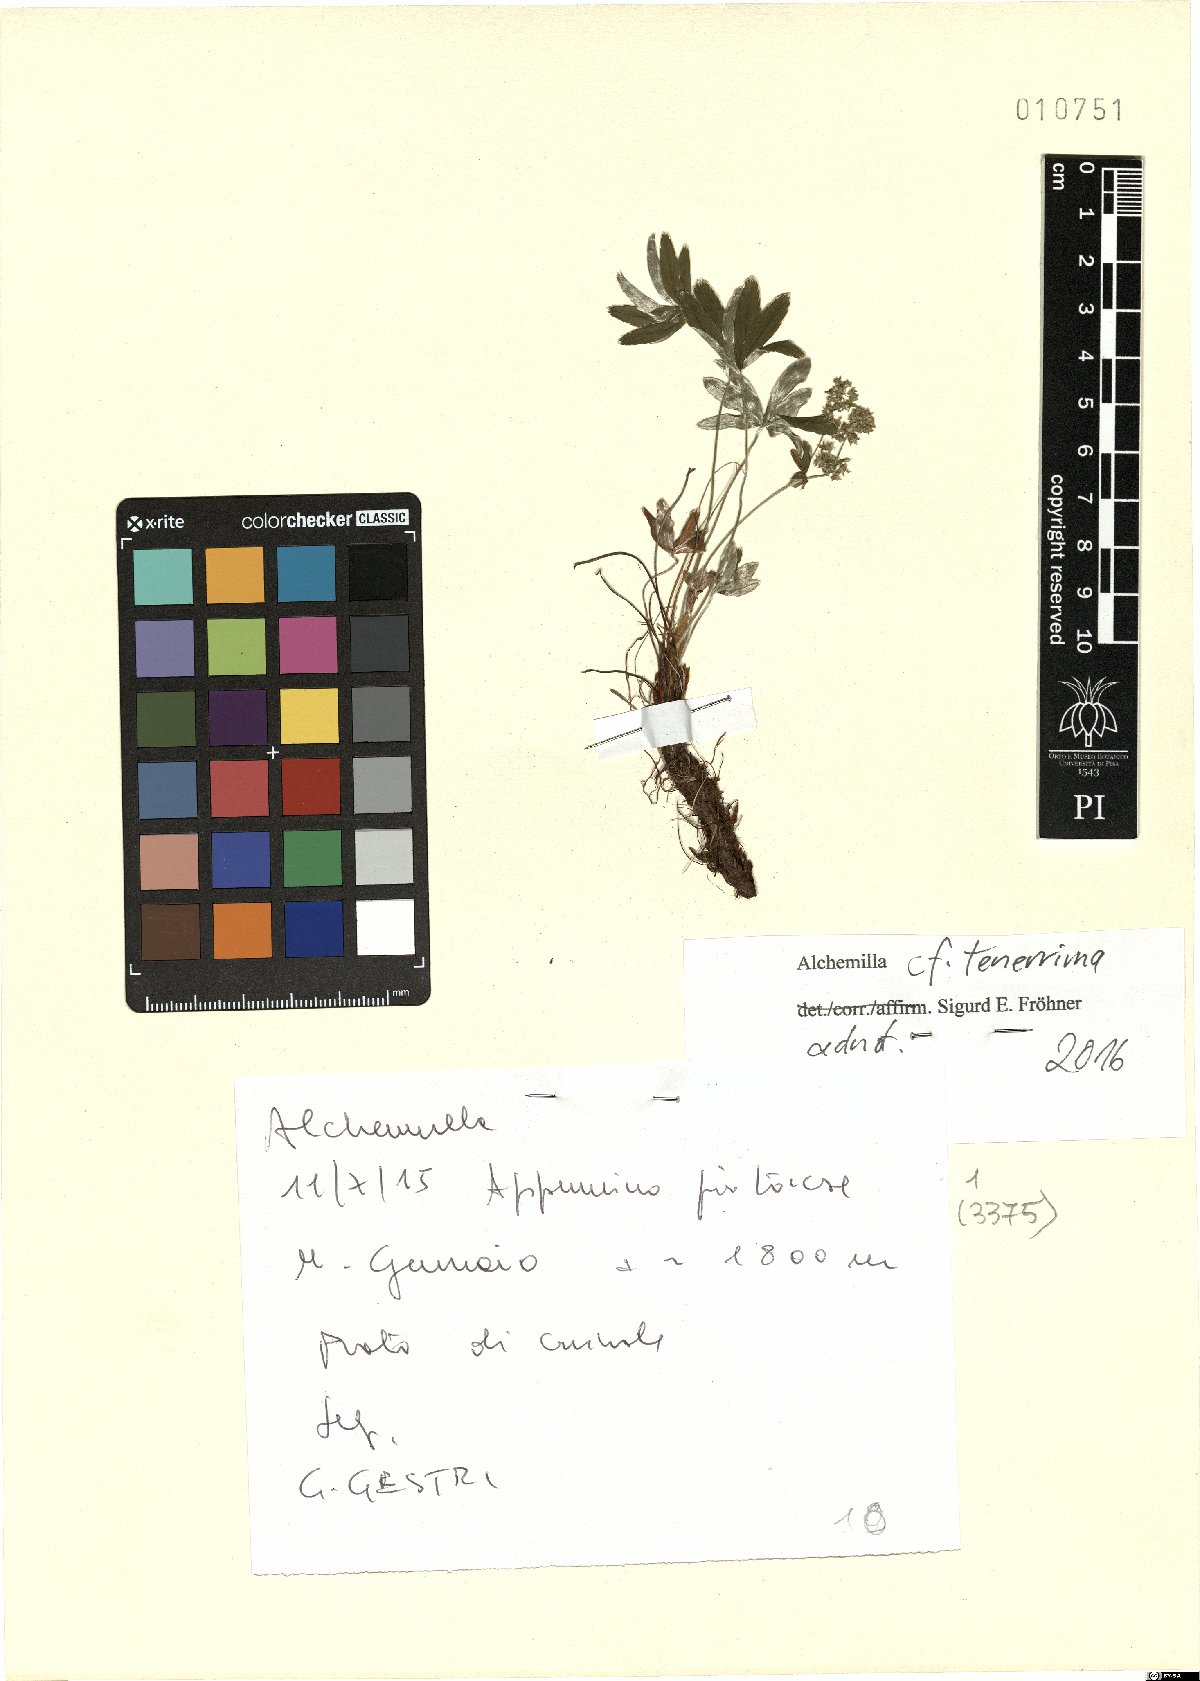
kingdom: Plantae
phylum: Tracheophyta
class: Magnoliopsida
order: Rosales
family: Rosaceae
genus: Alchemilla
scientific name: Alchemilla tenerrima
